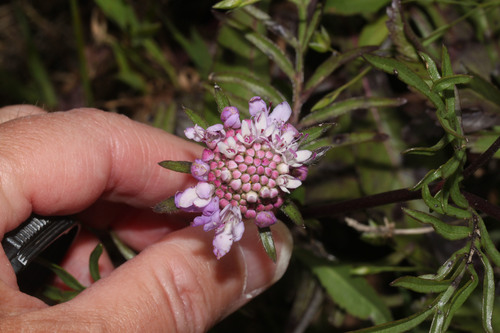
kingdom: Plantae
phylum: Tracheophyta
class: Magnoliopsida
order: Dipsacales
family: Caprifoliaceae
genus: Sixalix
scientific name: Sixalix atropurpurea
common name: Sweet scabious
